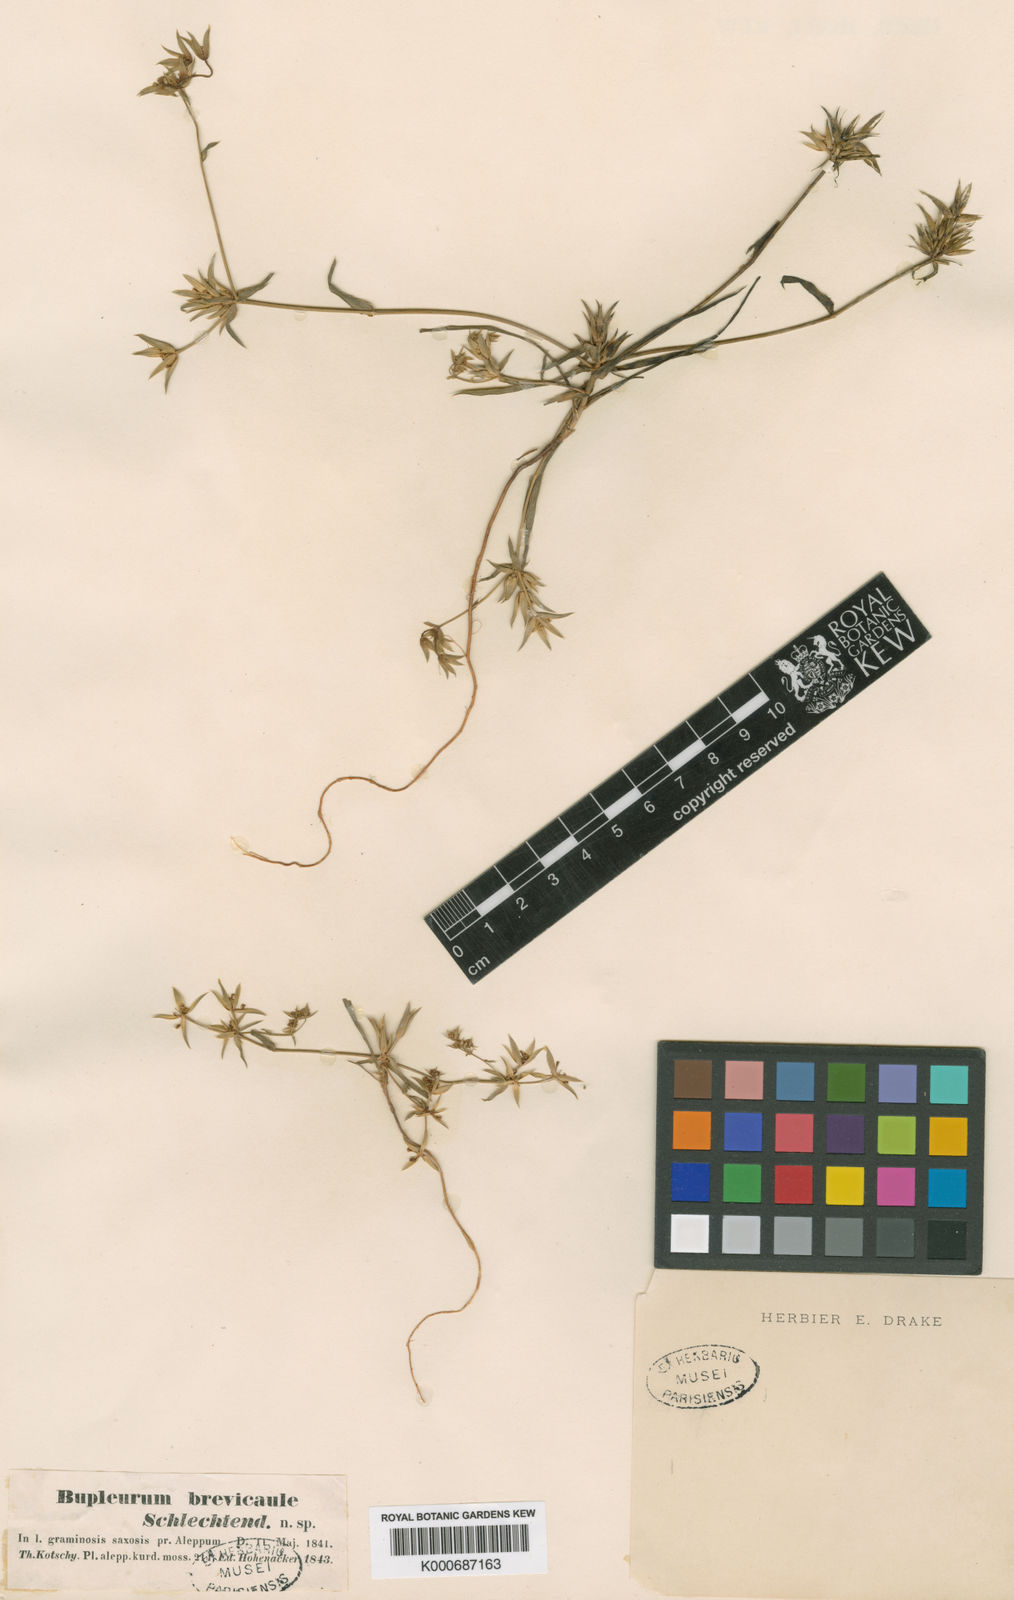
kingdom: Plantae
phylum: Tracheophyta
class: Magnoliopsida
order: Apiales
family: Apiaceae
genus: Bupleurum
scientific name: Bupleurum brevicaule
